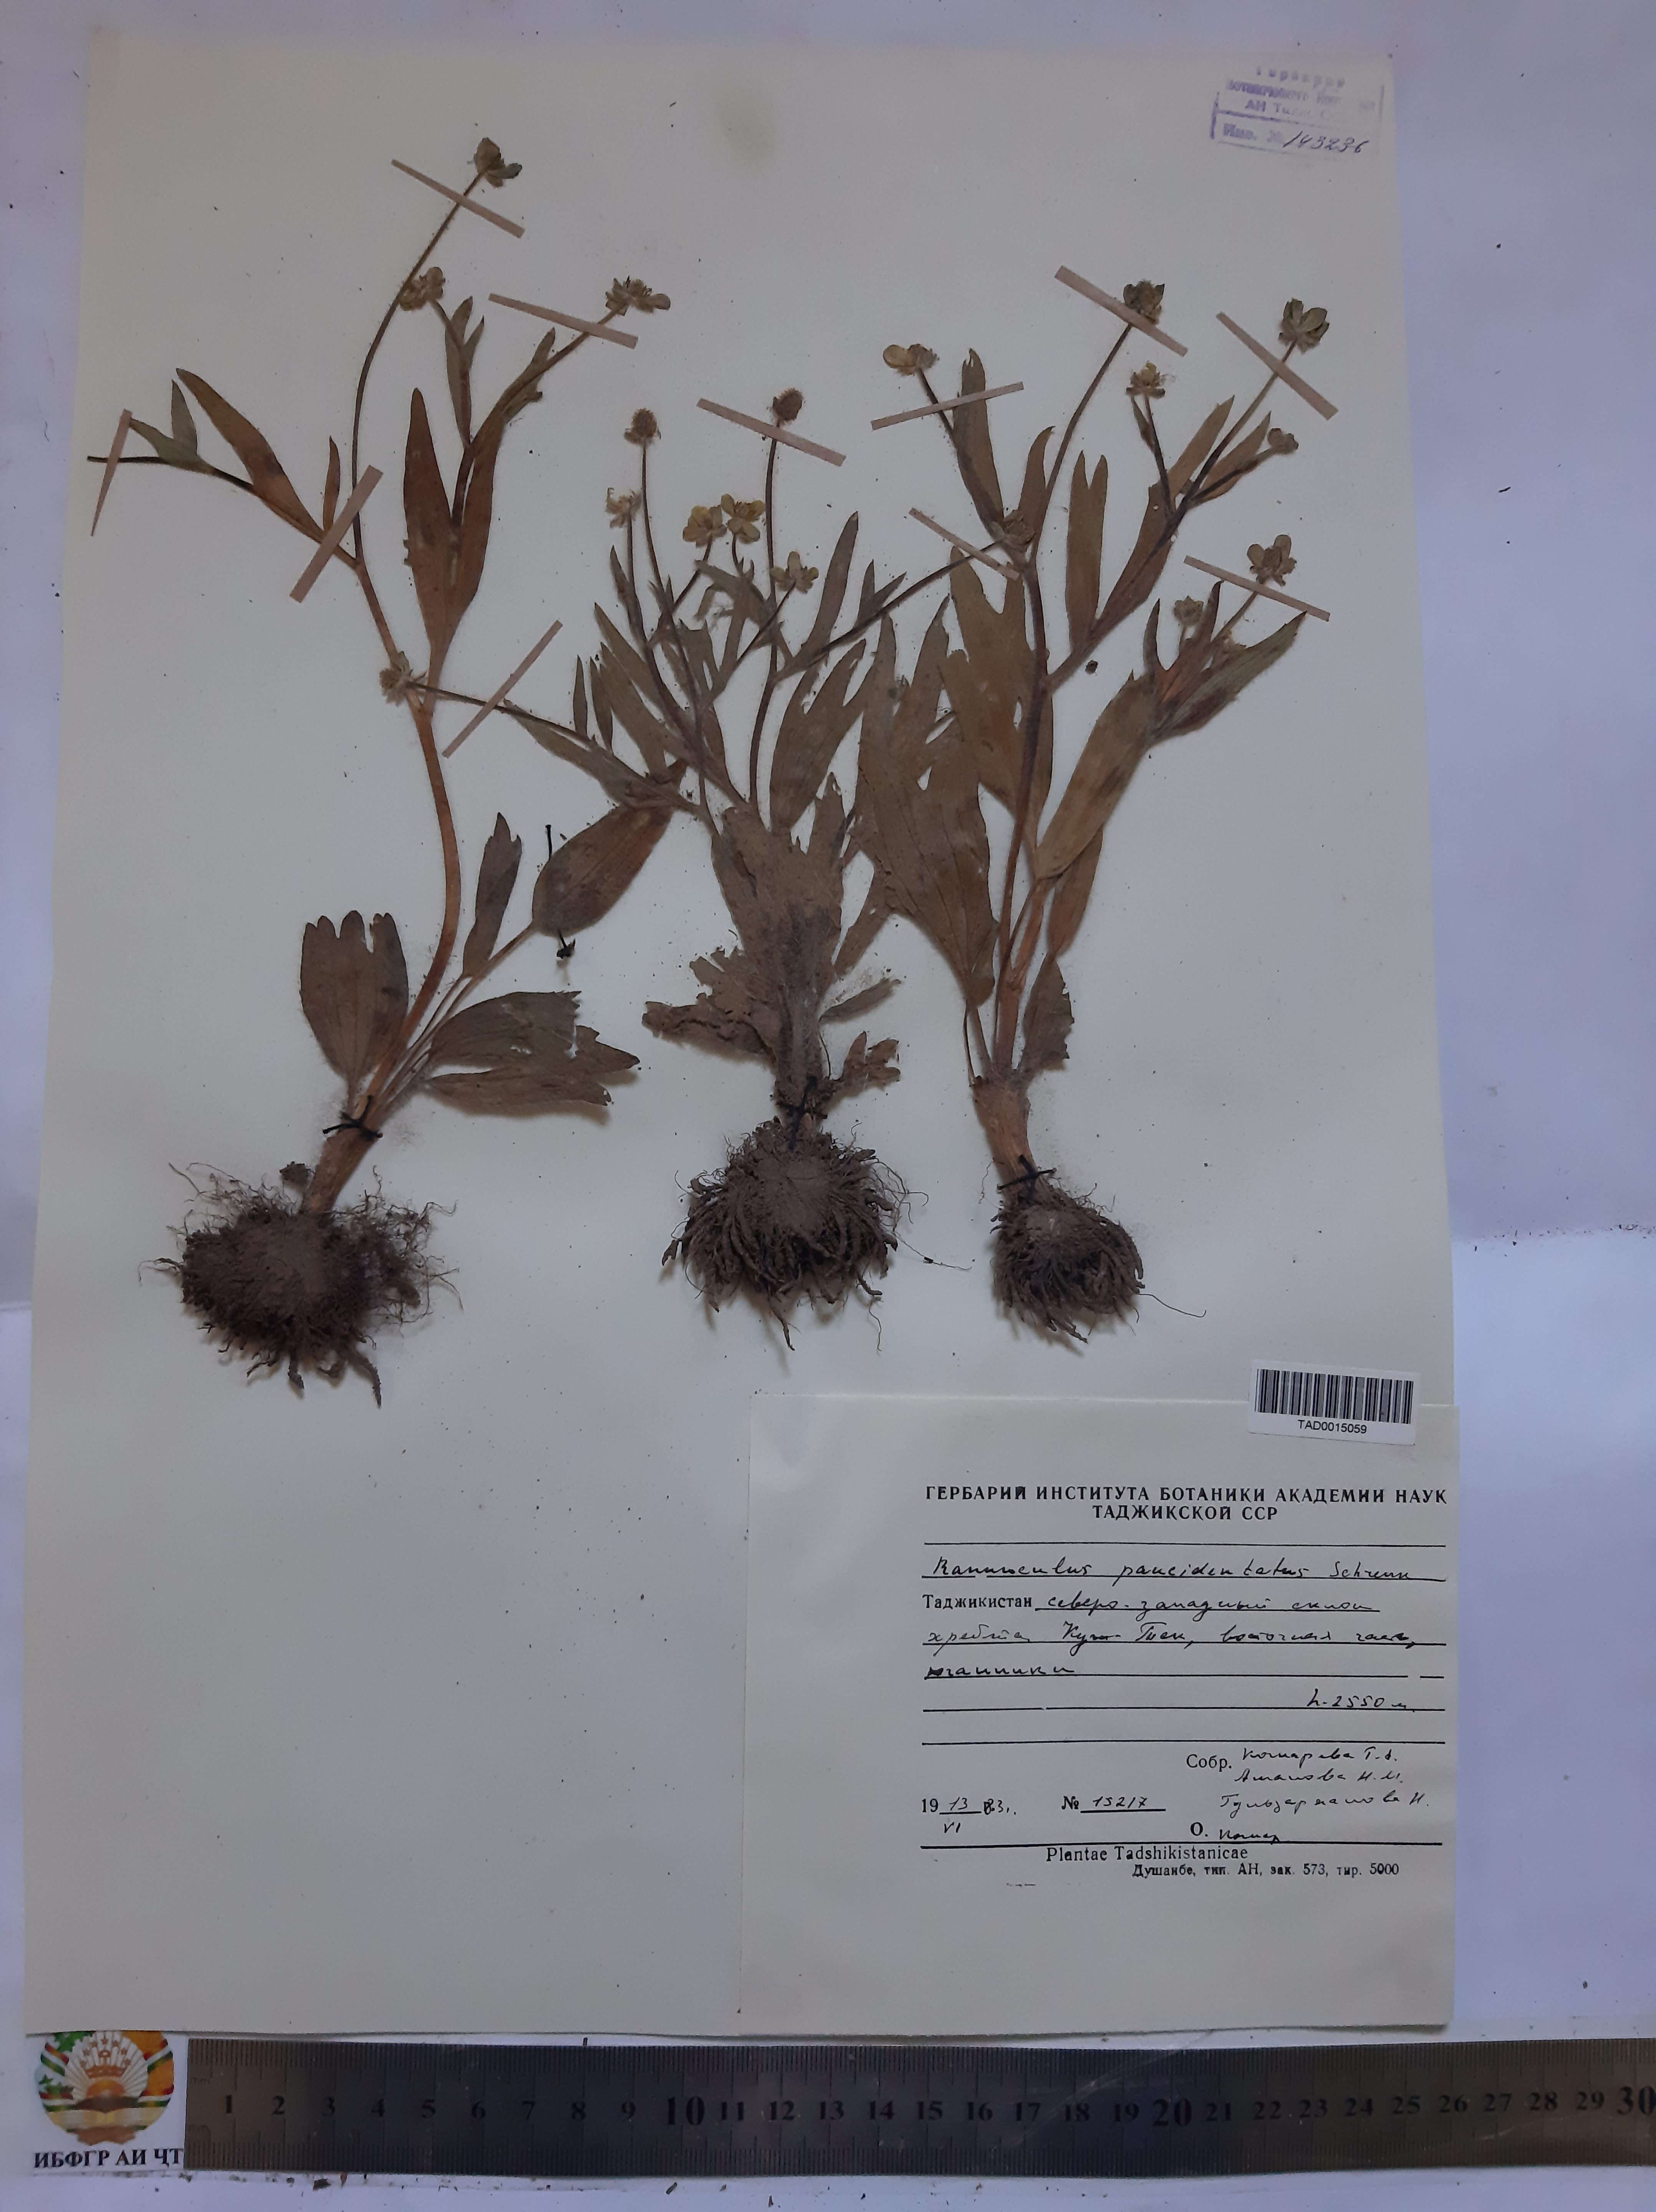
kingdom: Plantae
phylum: Tracheophyta
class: Magnoliopsida
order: Ranunculales
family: Ranunculaceae
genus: Ranunculus
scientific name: Ranunculus paucidentatus
